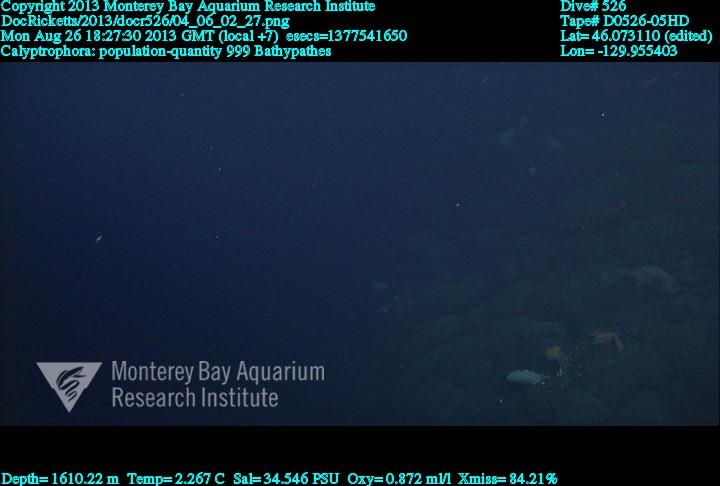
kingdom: Animalia
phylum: Cnidaria
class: Anthozoa
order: Scleralcyonacea
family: Primnoidae
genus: Calyptrophora
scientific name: Calyptrophora
